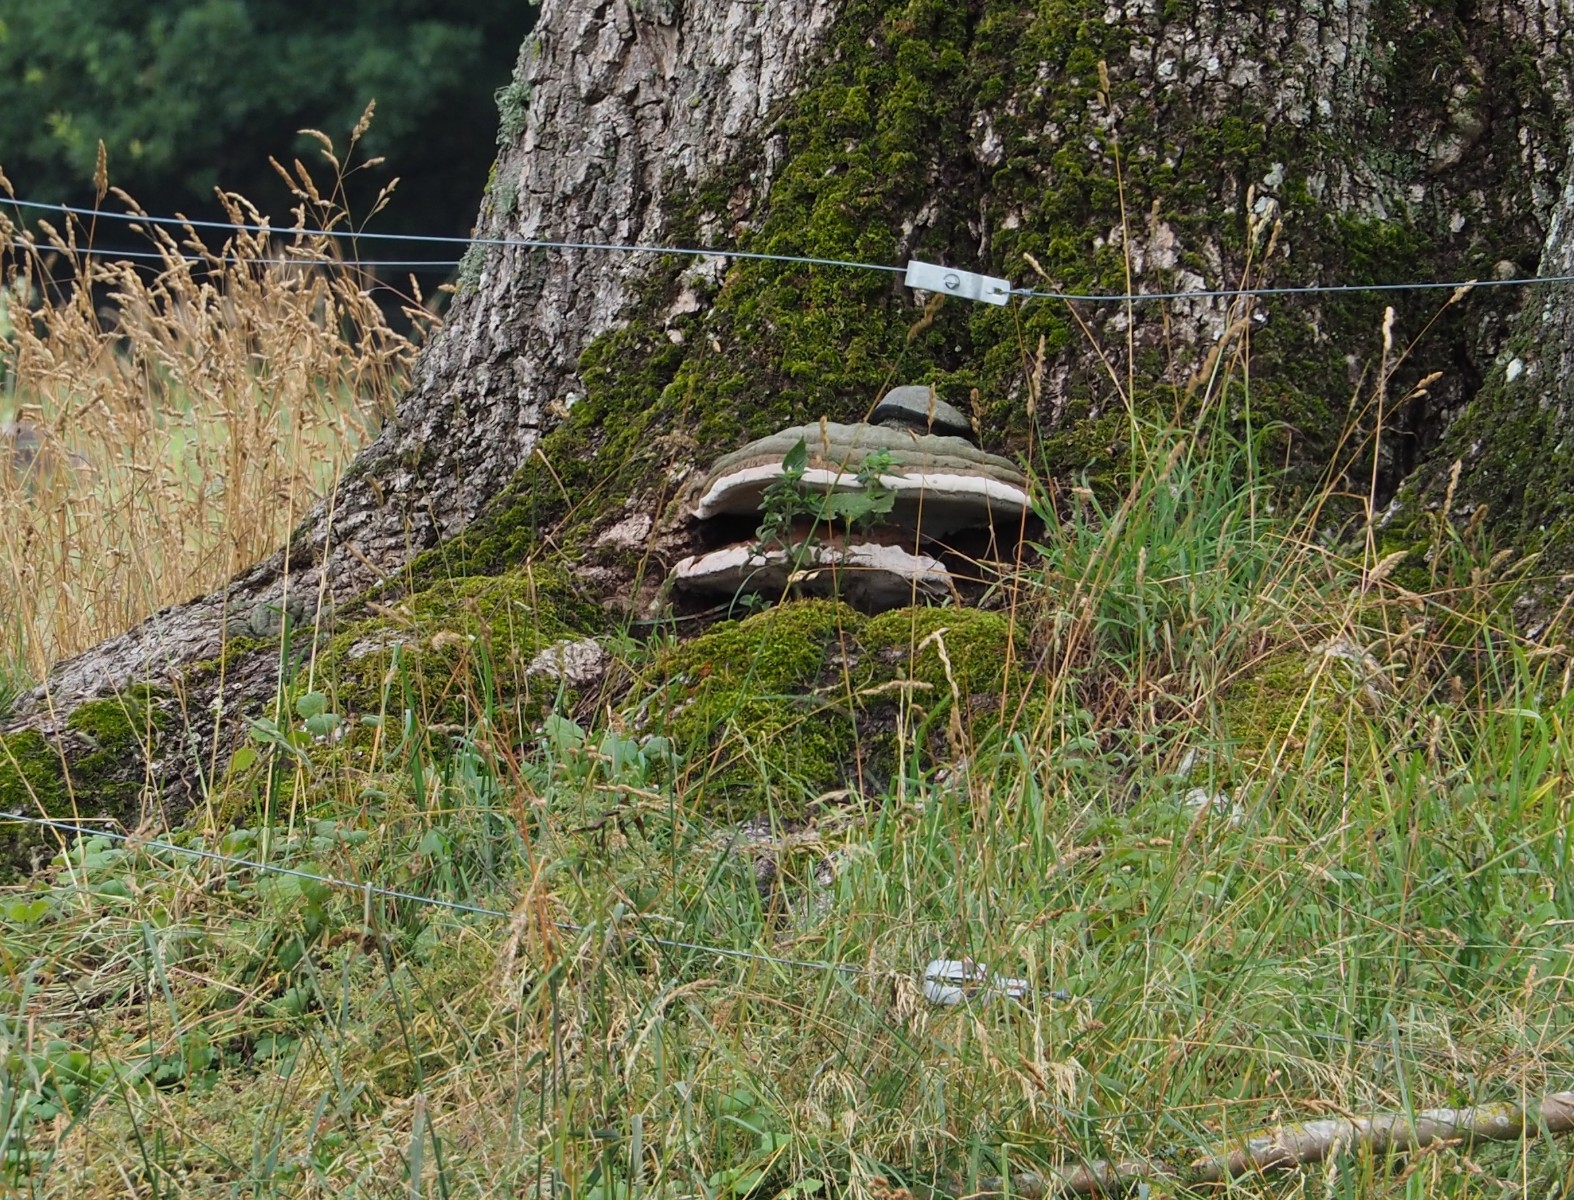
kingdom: Fungi
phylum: Basidiomycota
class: Agaricomycetes
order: Polyporales
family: Polyporaceae
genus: Ganoderma
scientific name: Ganoderma
